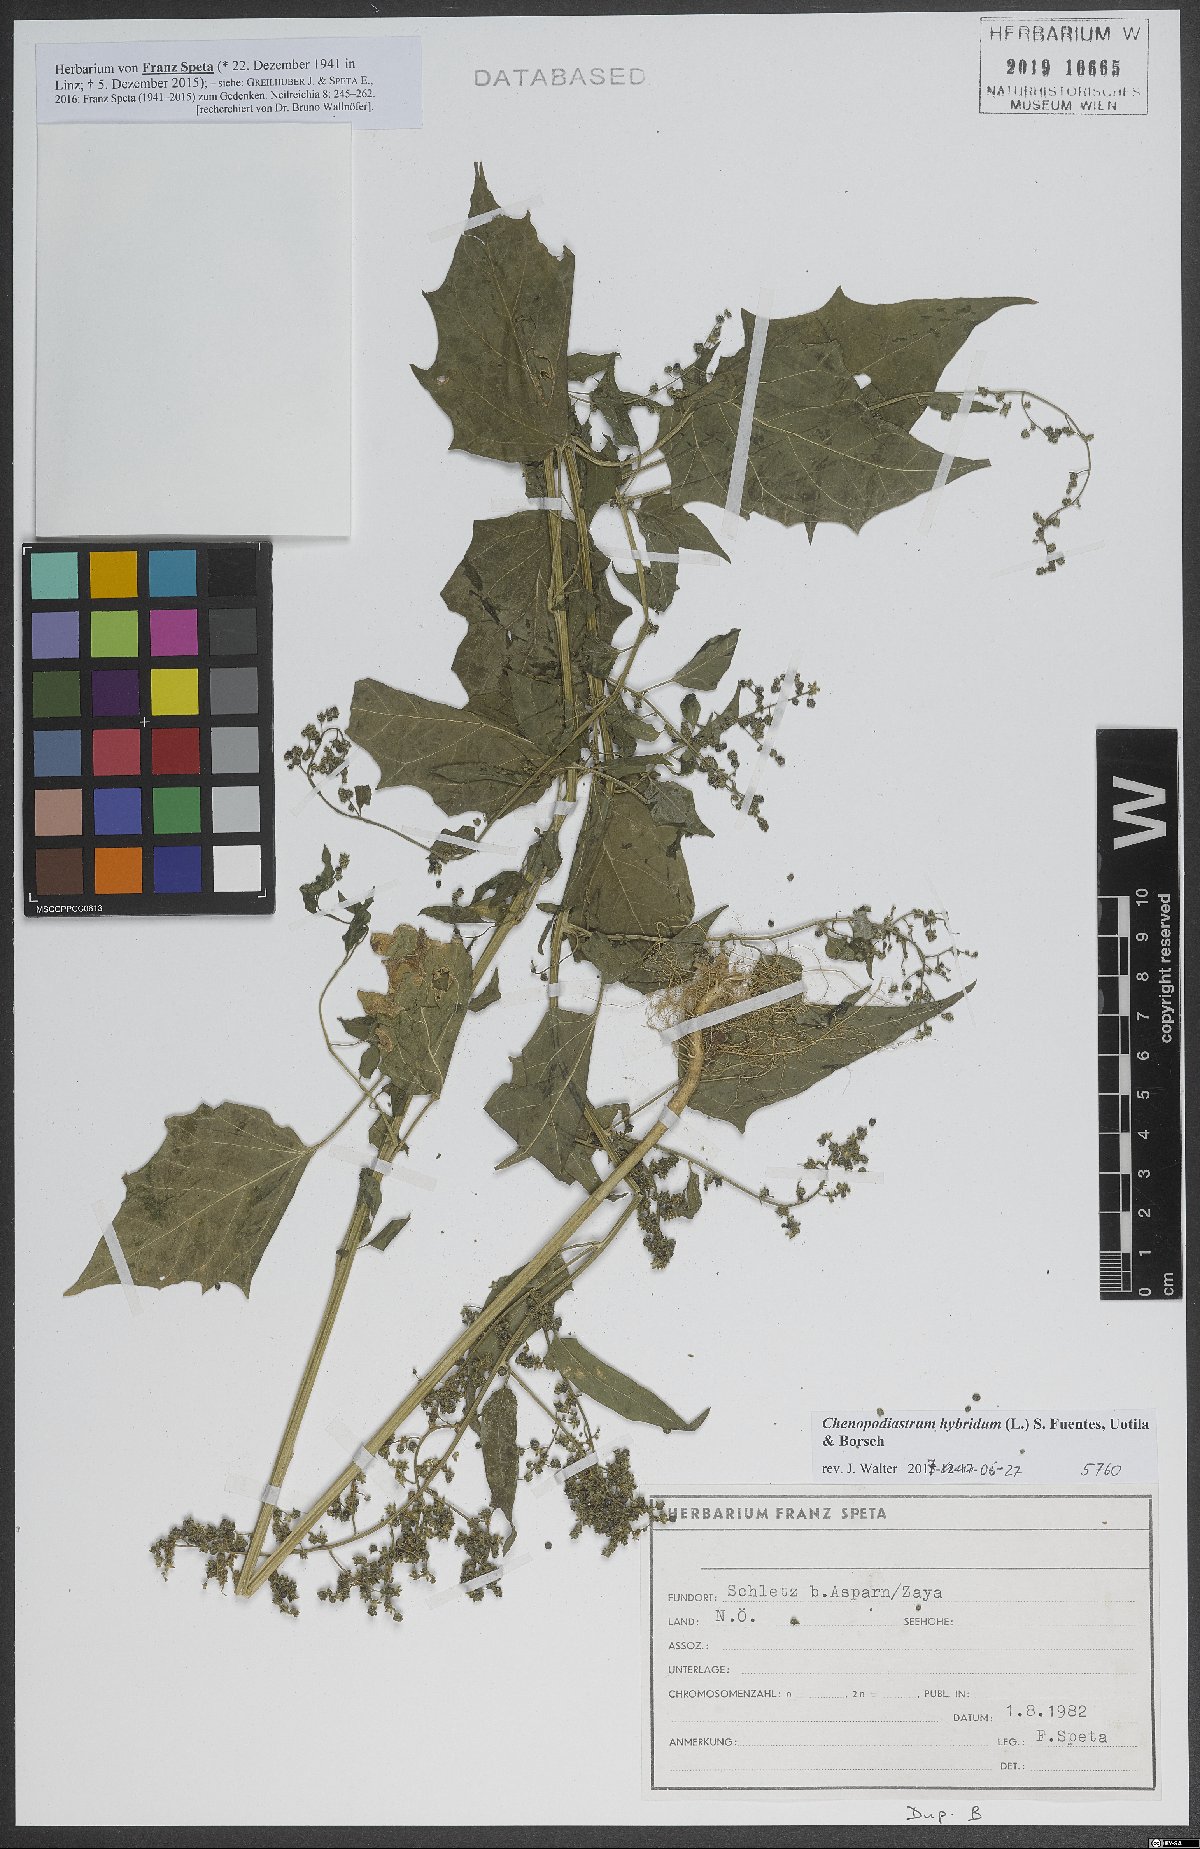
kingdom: Plantae
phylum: Tracheophyta
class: Magnoliopsida
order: Caryophyllales
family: Amaranthaceae
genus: Chenopodiastrum
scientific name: Chenopodiastrum hybridum
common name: Mapleleaf goosefoot
